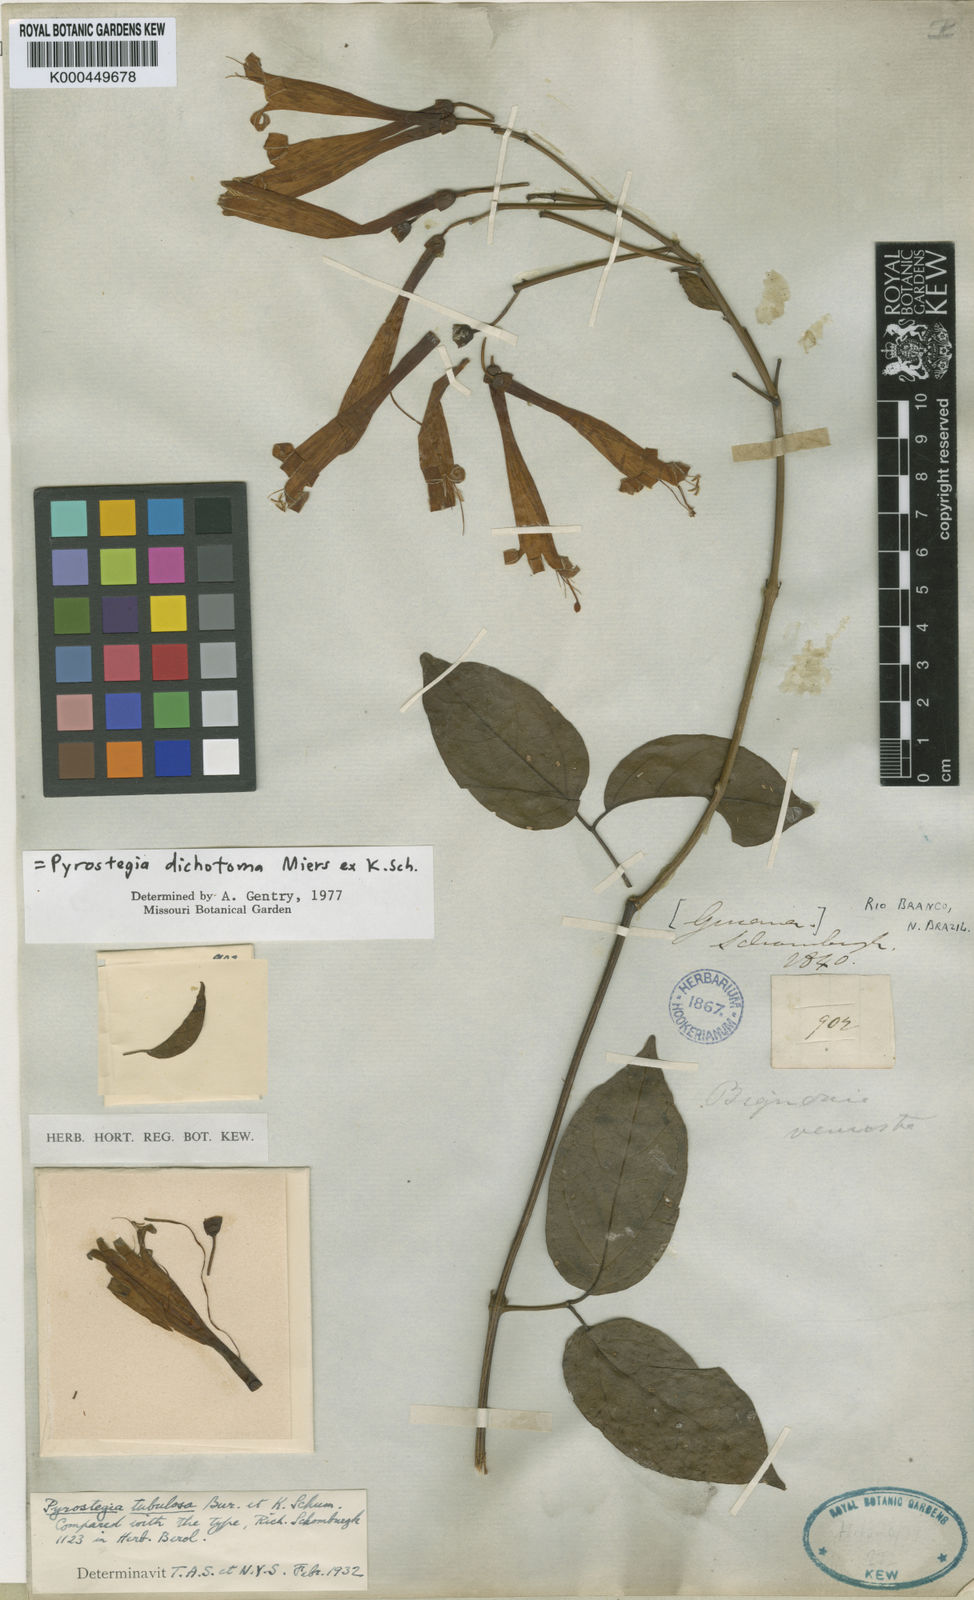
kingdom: Plantae
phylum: Tracheophyta
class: Magnoliopsida
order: Lamiales
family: Bignoniaceae
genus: Pyrostegia
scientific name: Pyrostegia
